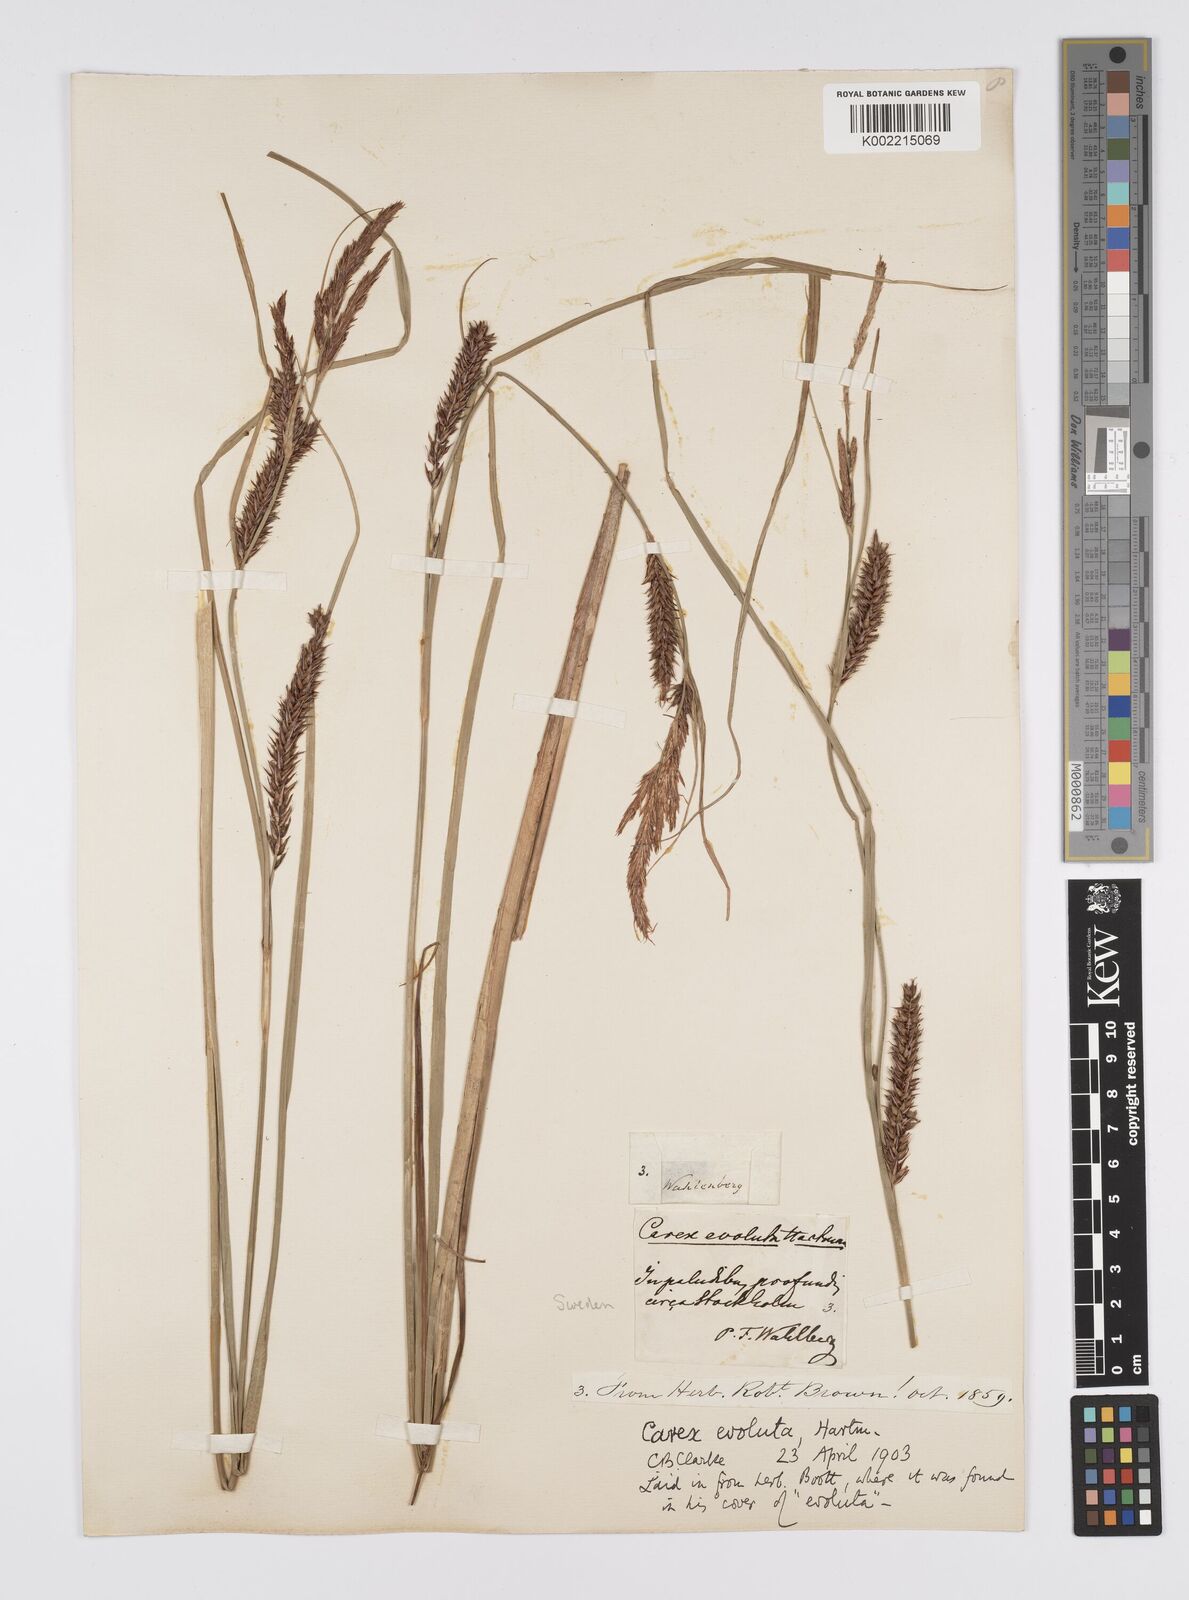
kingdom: Plantae
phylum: Tracheophyta
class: Liliopsida
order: Poales
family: Cyperaceae
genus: Carex
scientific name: Carex evoluta
